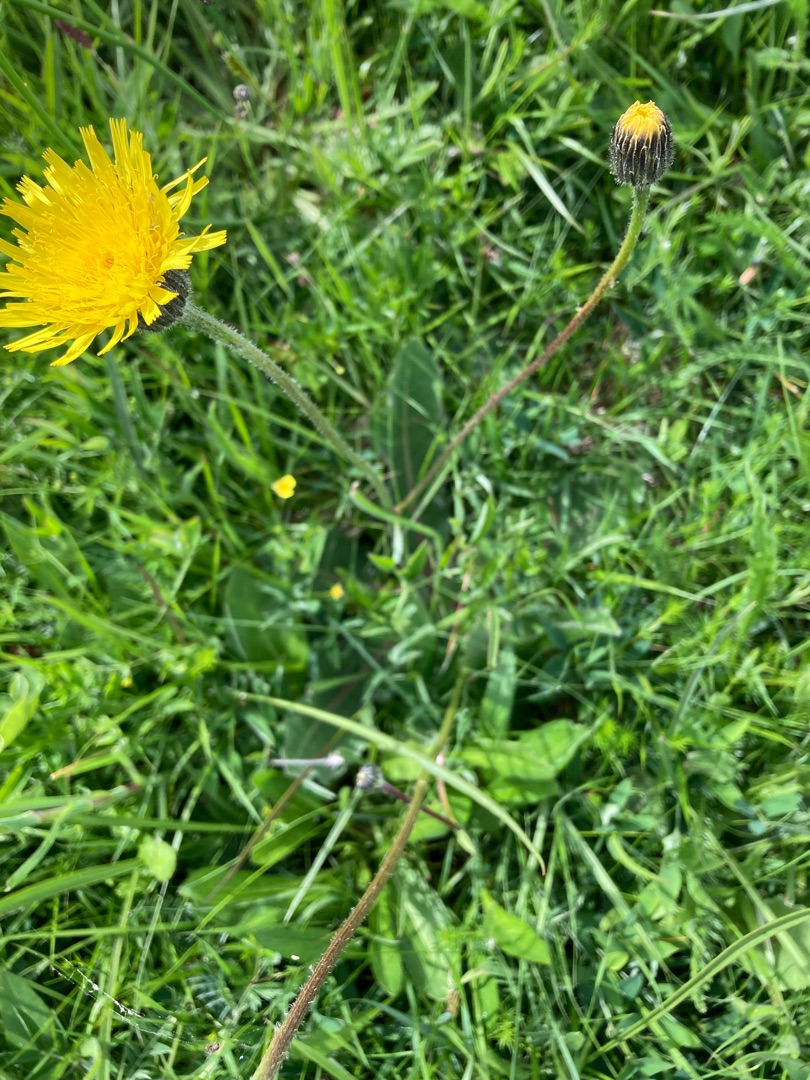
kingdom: Plantae
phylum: Tracheophyta
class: Magnoliopsida
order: Asterales
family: Asteraceae
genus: Trommsdorffia
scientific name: Trommsdorffia maculata
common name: Plettet kongepen
